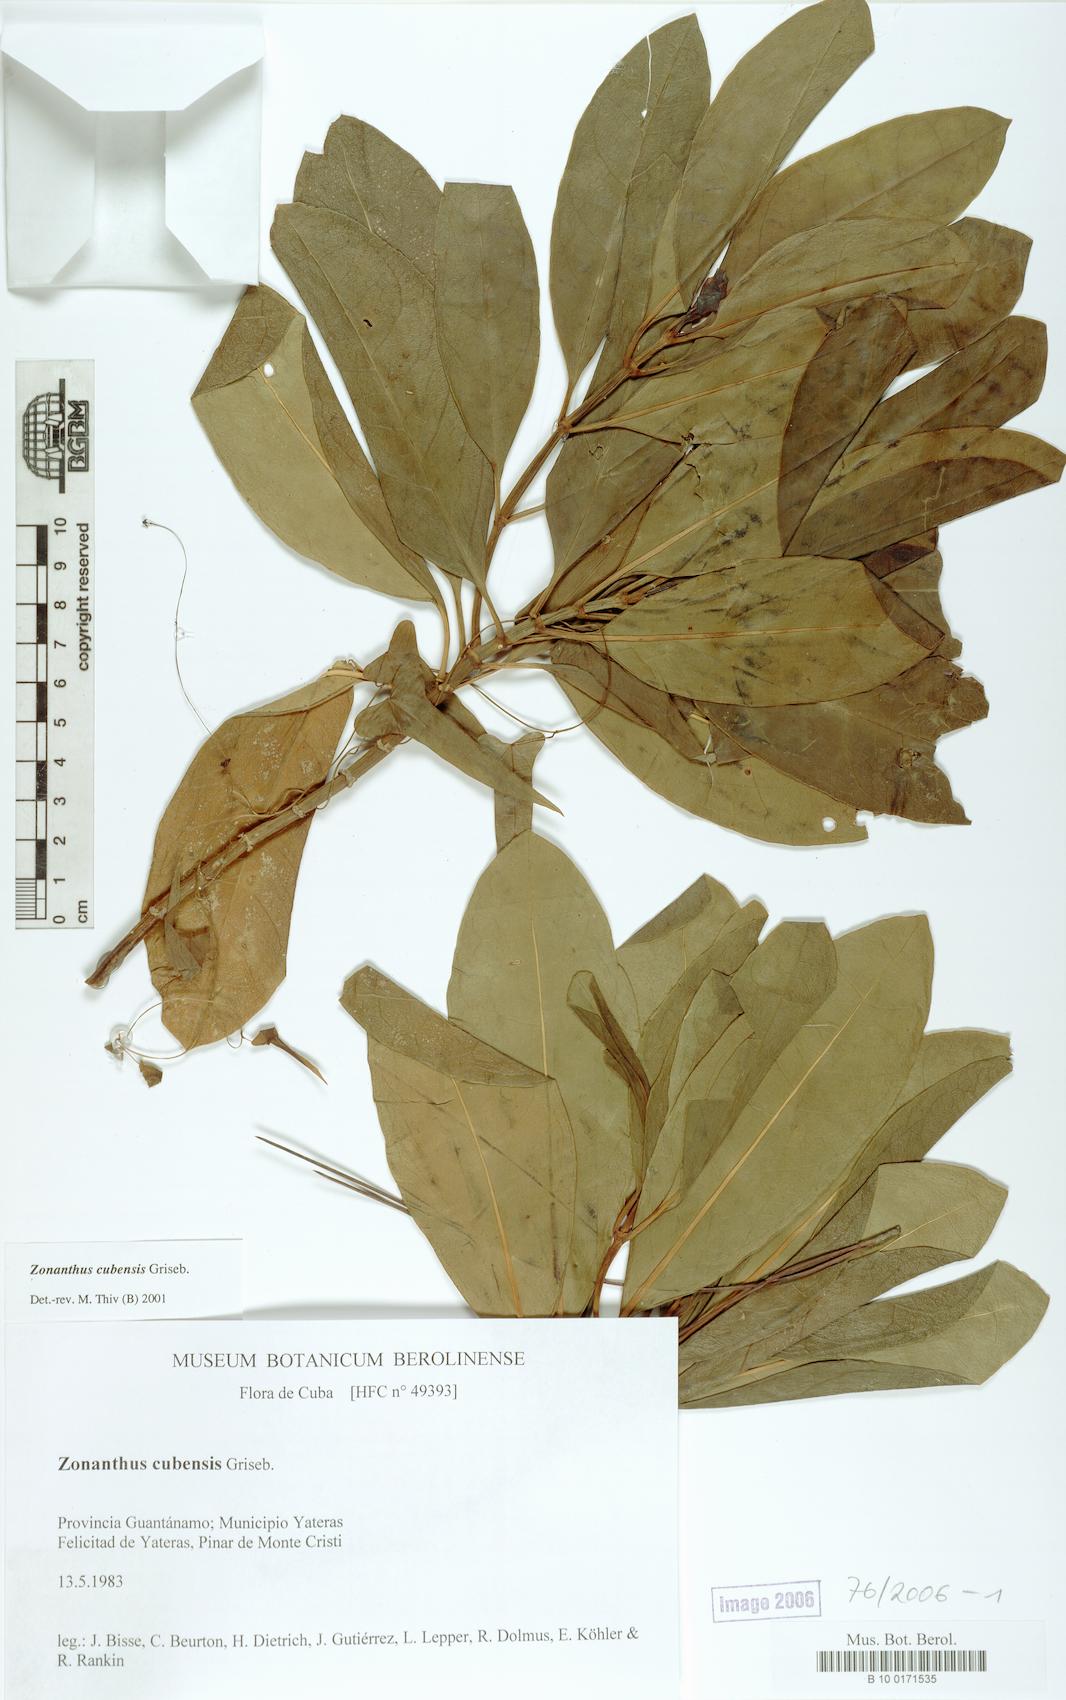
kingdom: Plantae
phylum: Tracheophyta
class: Magnoliopsida
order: Gentianales
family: Gentianaceae
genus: Zonanthus
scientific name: Zonanthus cubensis
